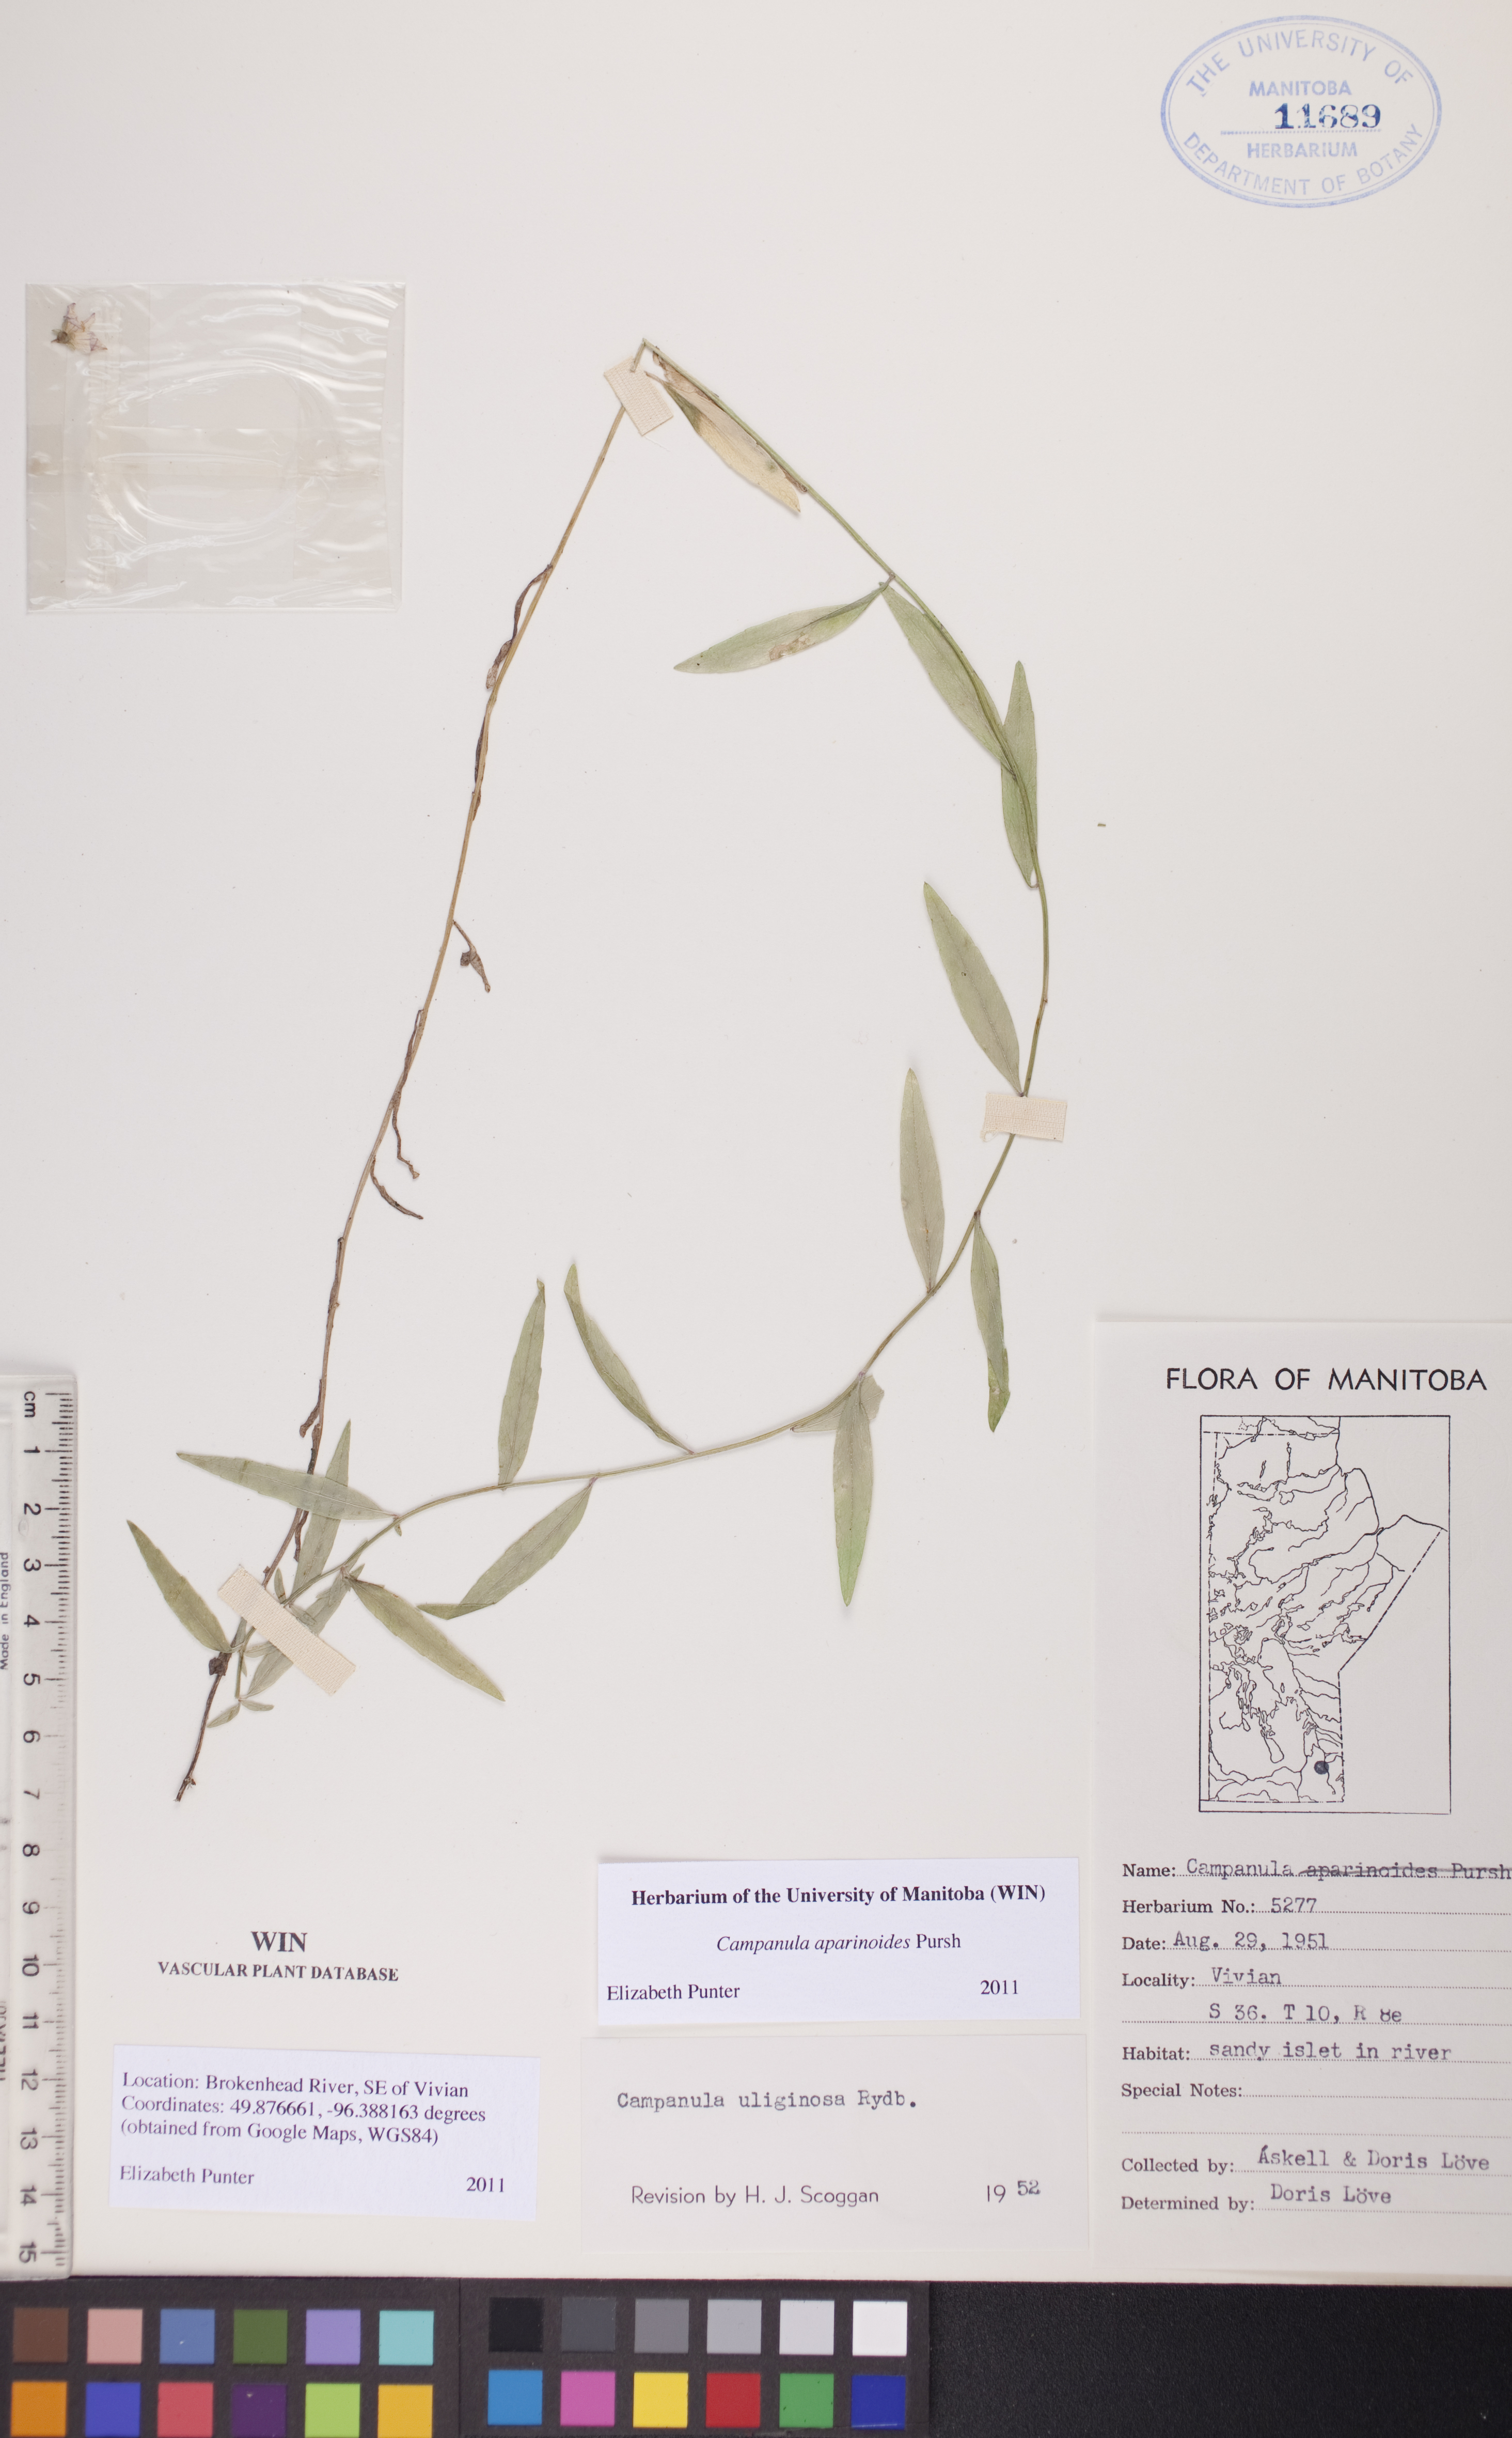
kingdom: Plantae
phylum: Tracheophyta
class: Magnoliopsida
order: Asterales
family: Campanulaceae
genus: Palustricodon
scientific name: Palustricodon aparinoides
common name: Bedstraw bellflower
